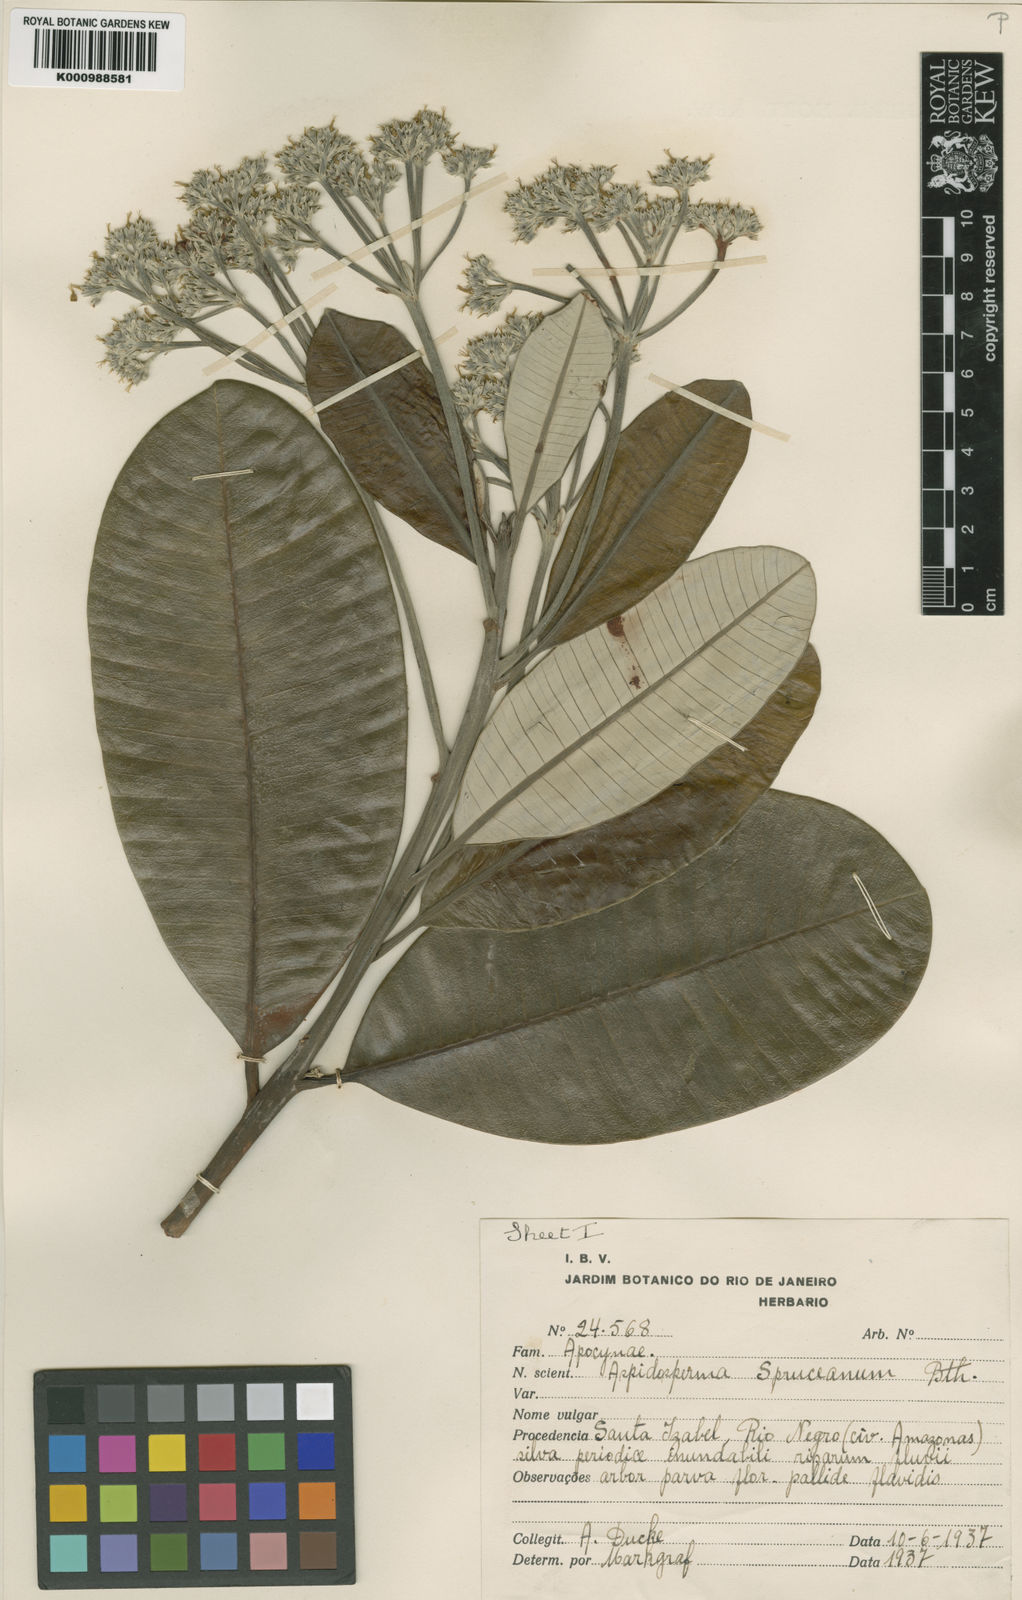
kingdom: Plantae
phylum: Tracheophyta
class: Magnoliopsida
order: Gentianales
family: Apocynaceae
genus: Aspidosperma
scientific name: Aspidosperma
